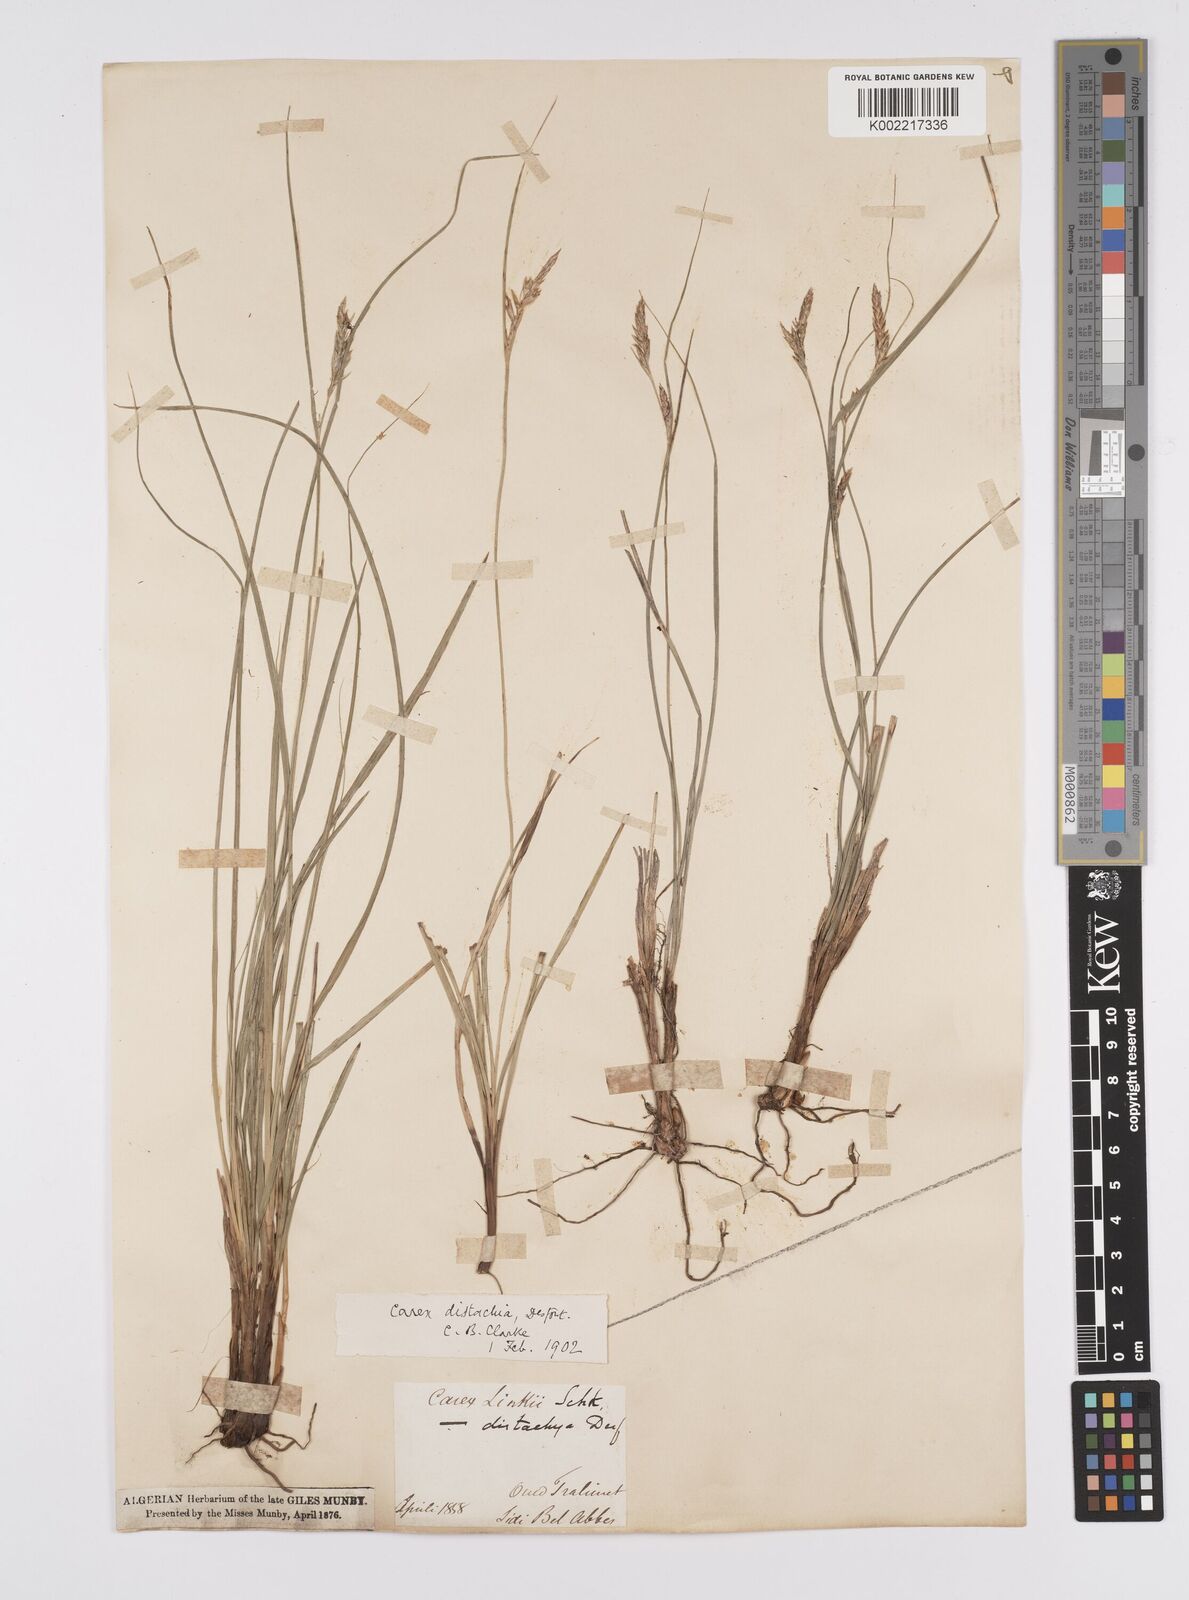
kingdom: Plantae
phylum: Tracheophyta
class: Liliopsida
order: Poales
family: Cyperaceae
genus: Carex
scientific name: Carex distachya
